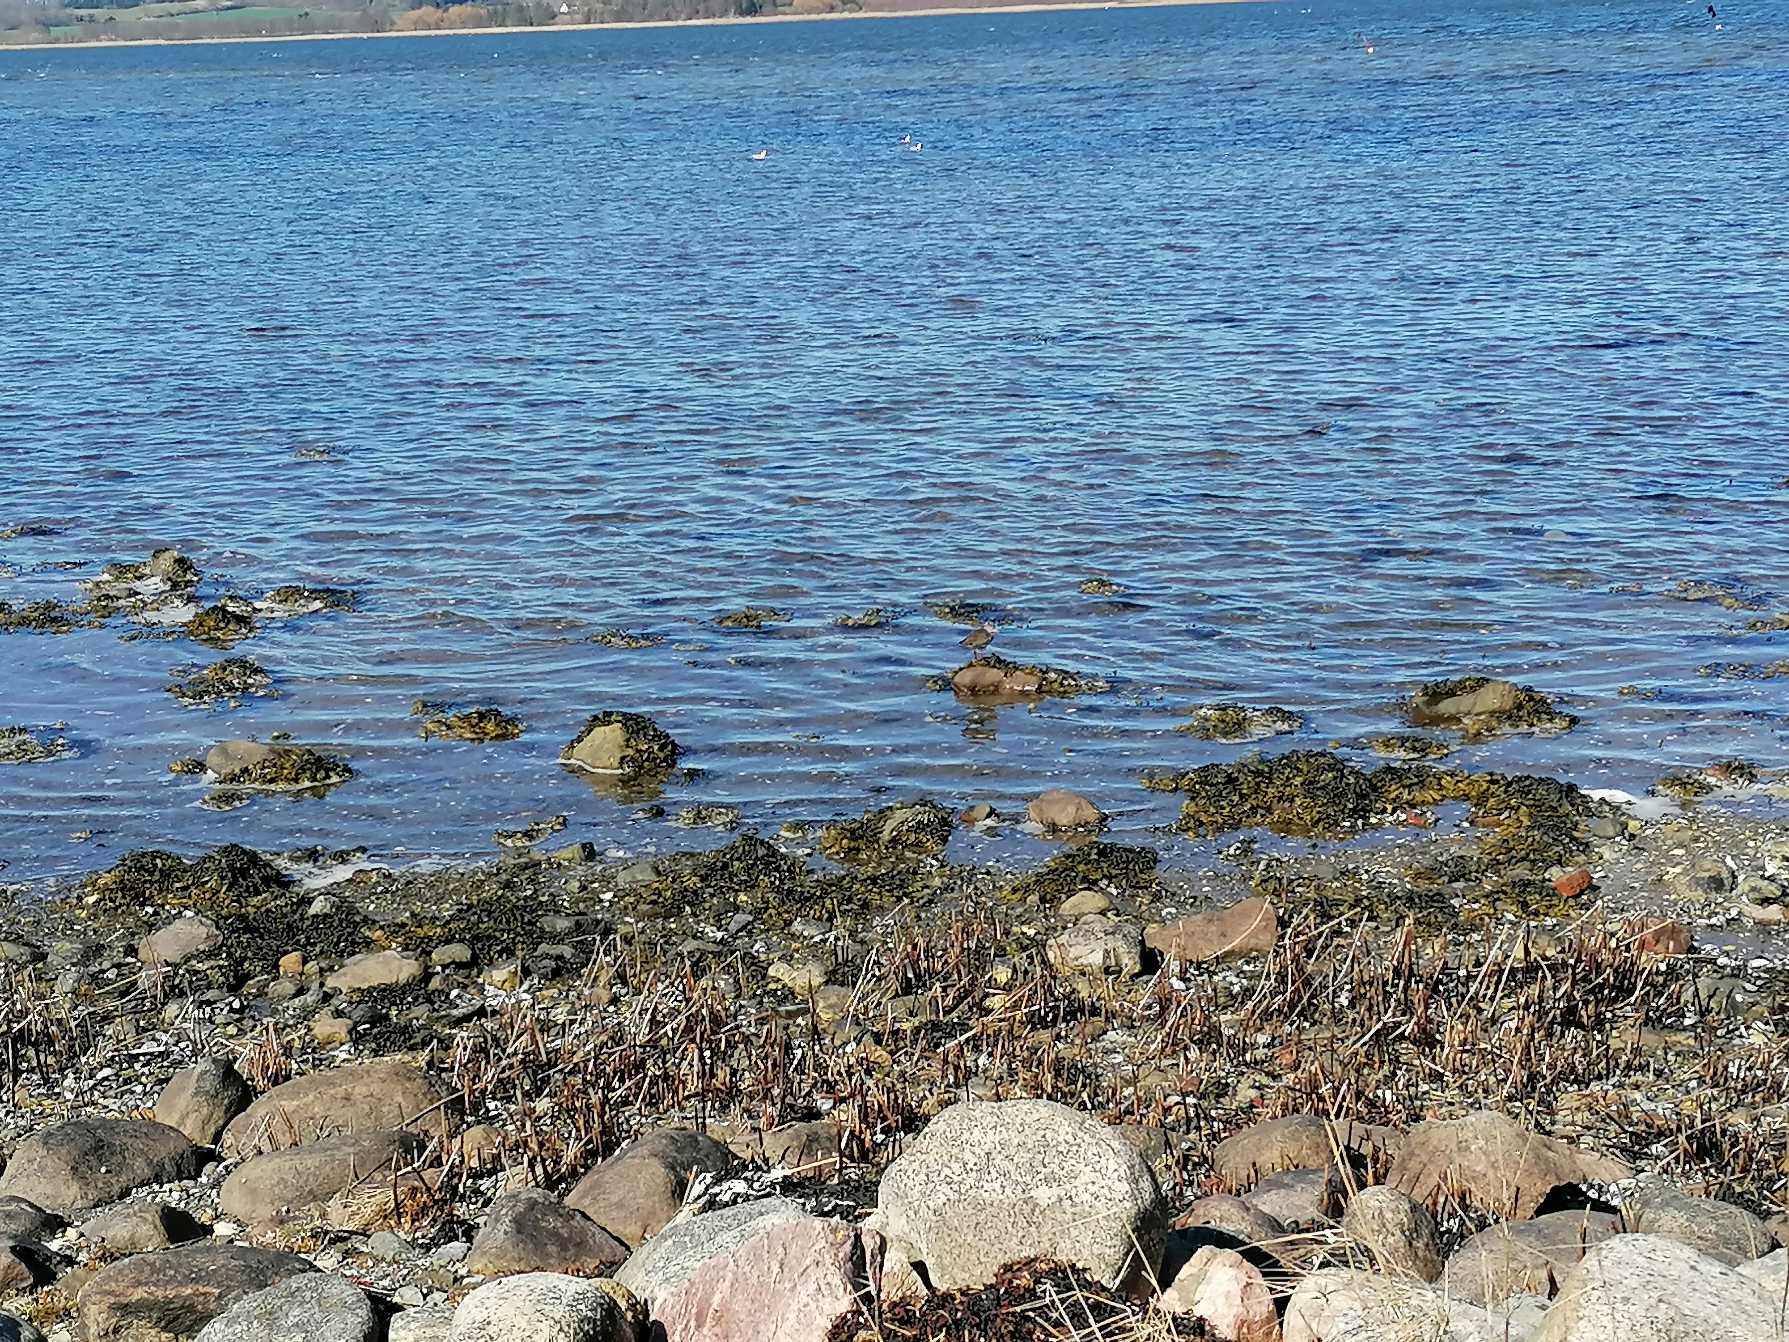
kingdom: Animalia
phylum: Chordata
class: Aves
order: Charadriiformes
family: Scolopacidae
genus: Tringa
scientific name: Tringa totanus
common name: Rødben
